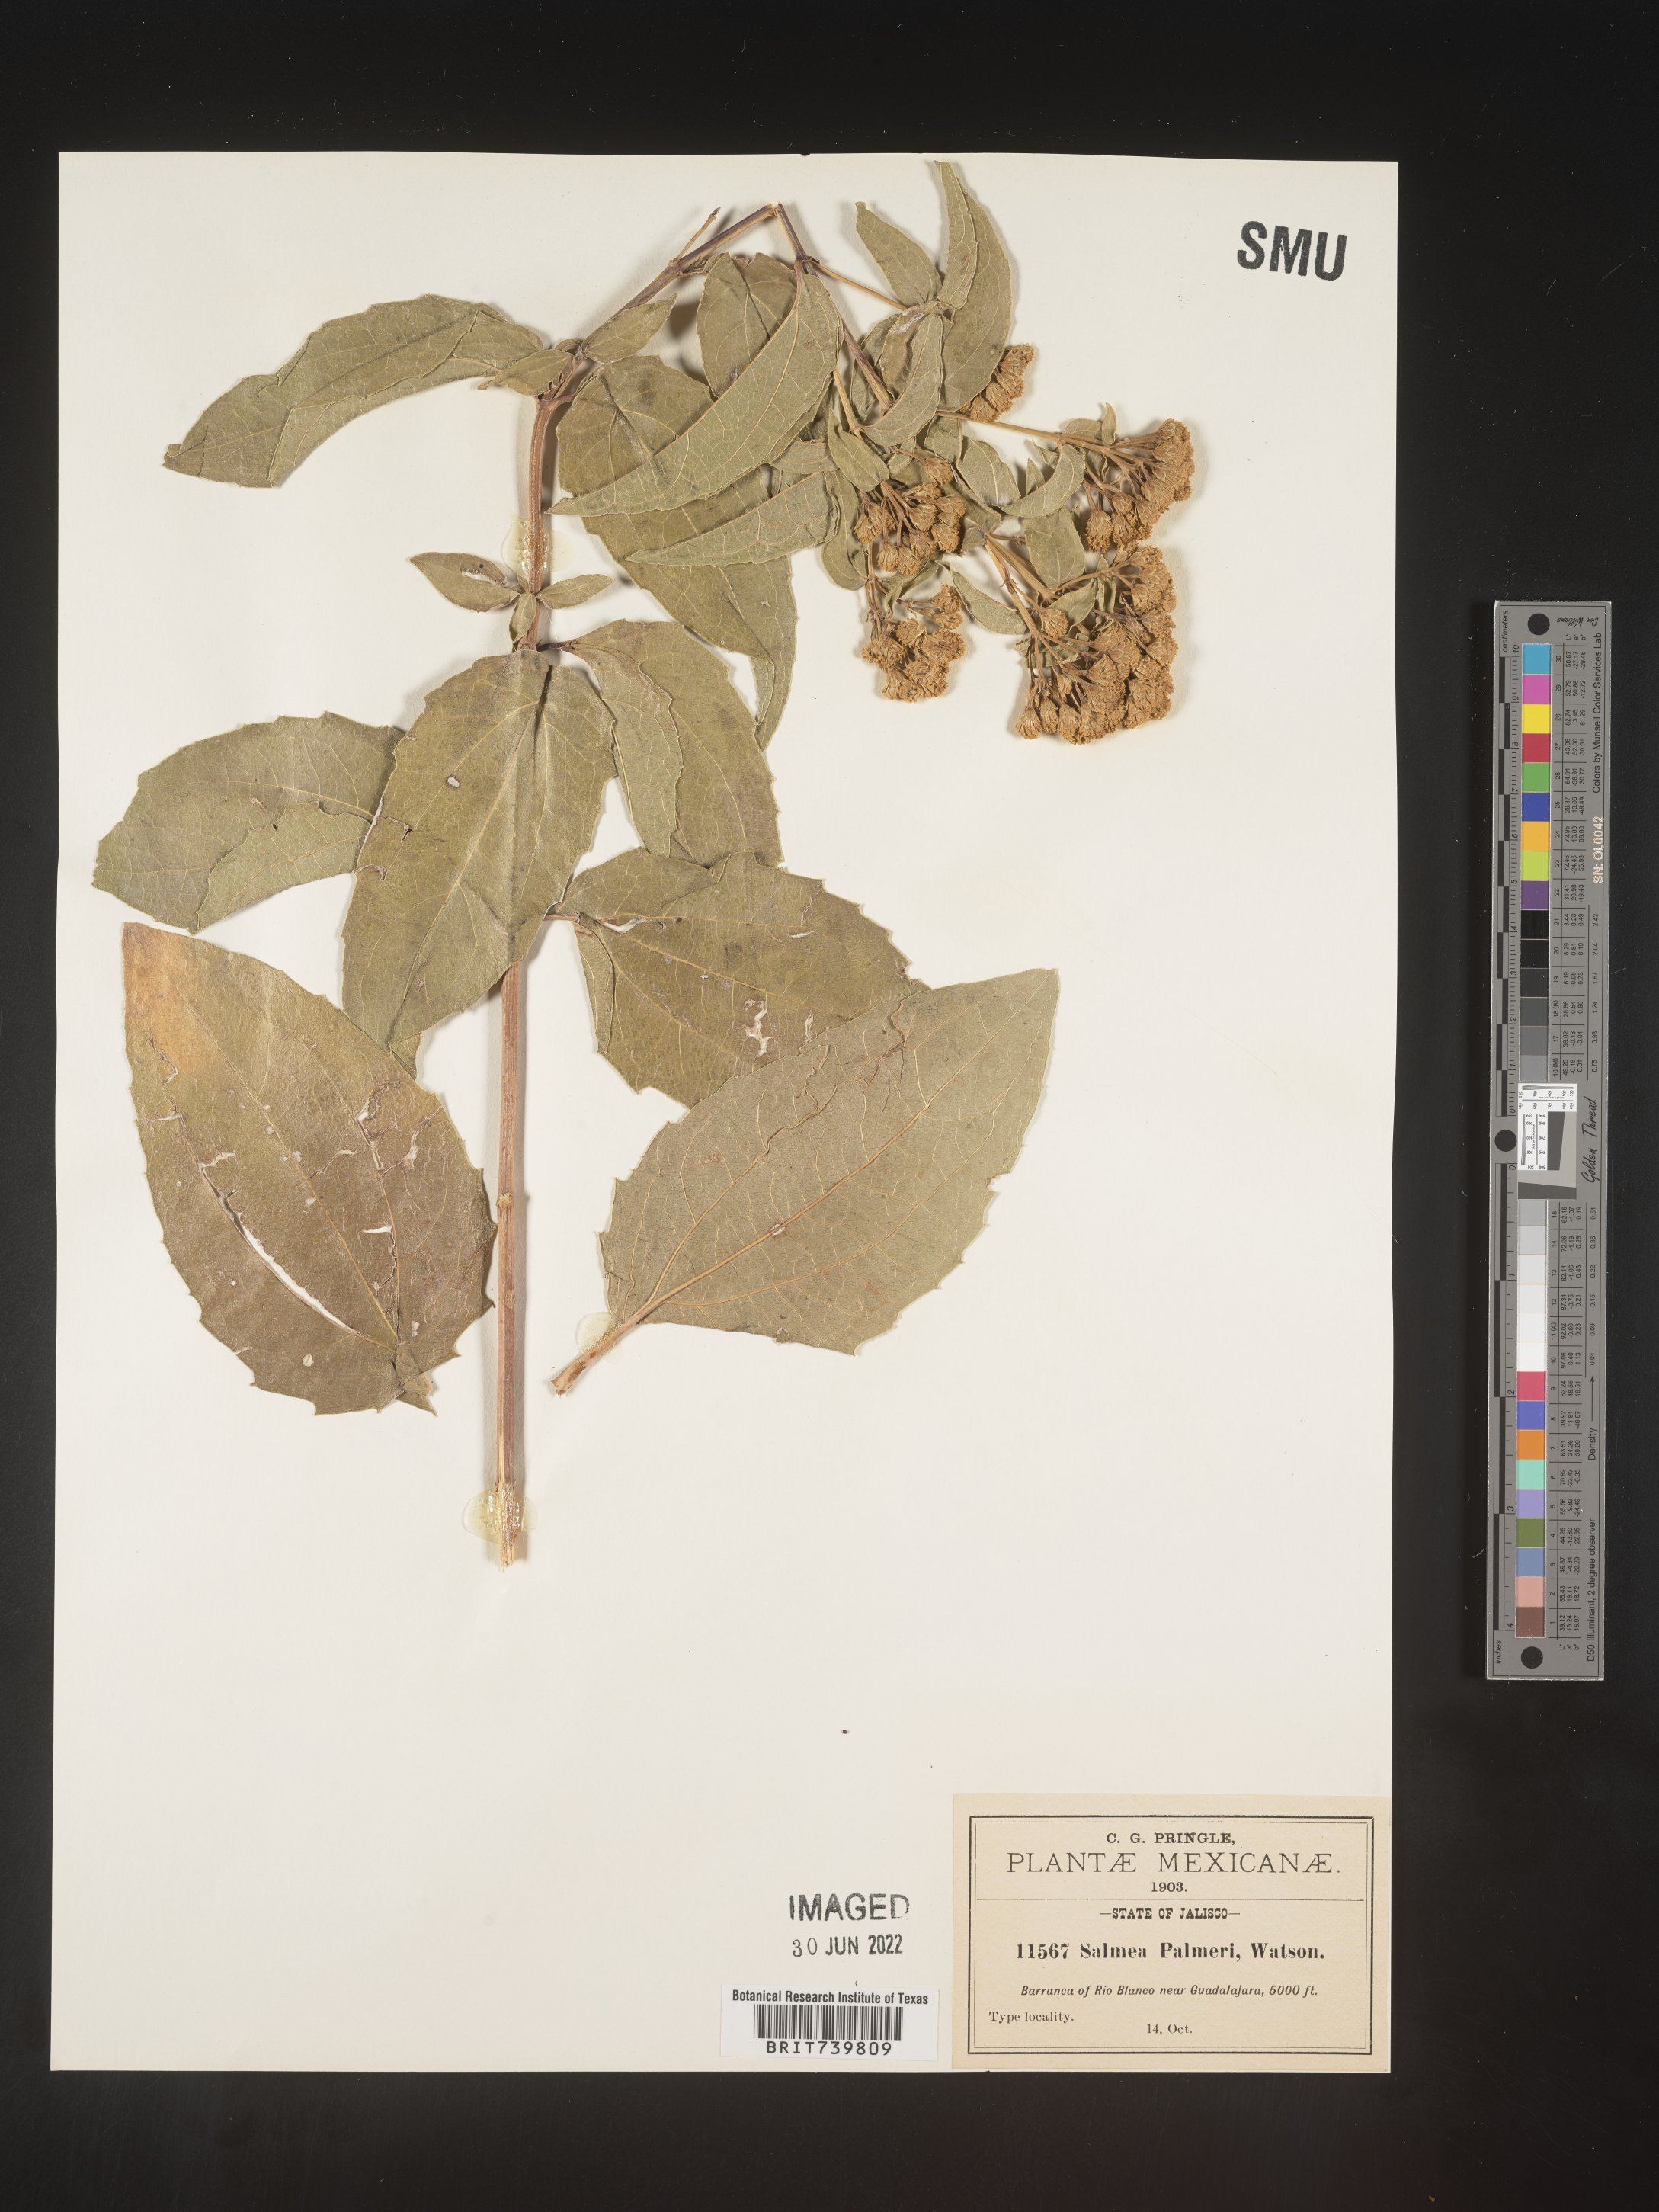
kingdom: Plantae
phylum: Tracheophyta
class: Magnoliopsida
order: Asterales
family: Asteraceae
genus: Salmea
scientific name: Salmea
